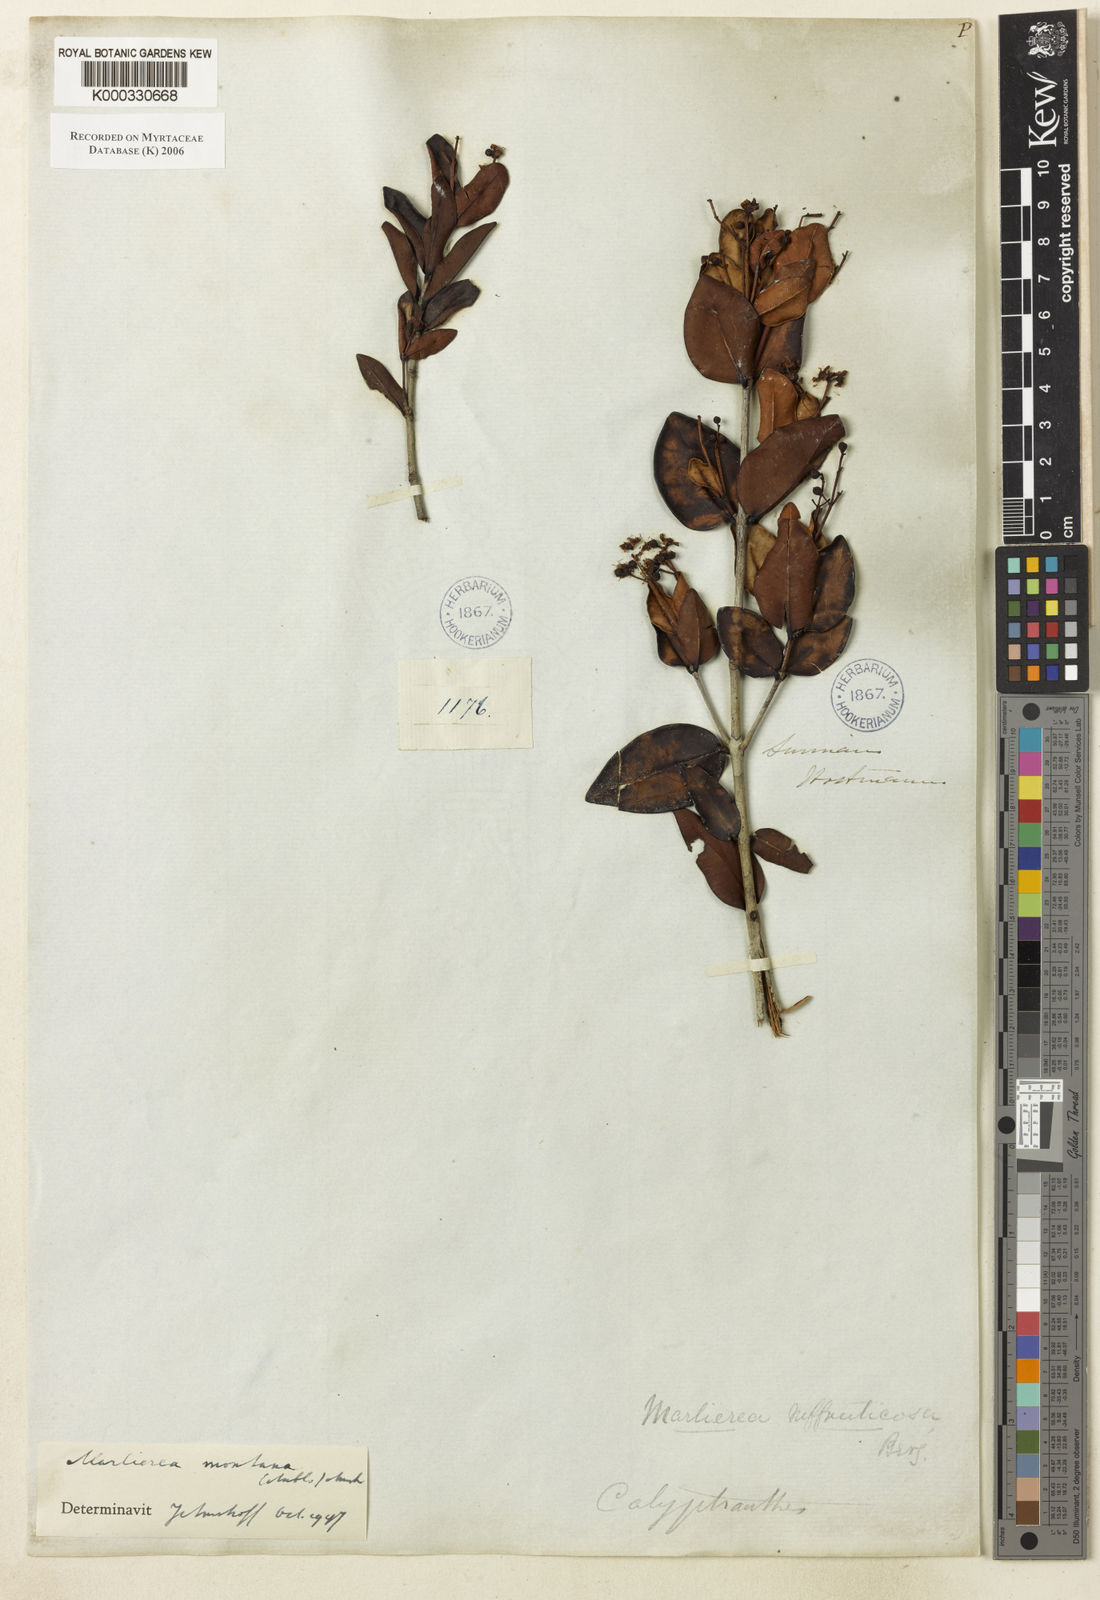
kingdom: Plantae
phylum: Tracheophyta
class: Magnoliopsida
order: Myrtales
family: Myrtaceae
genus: Myrcia
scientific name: Myrcia neomontana
